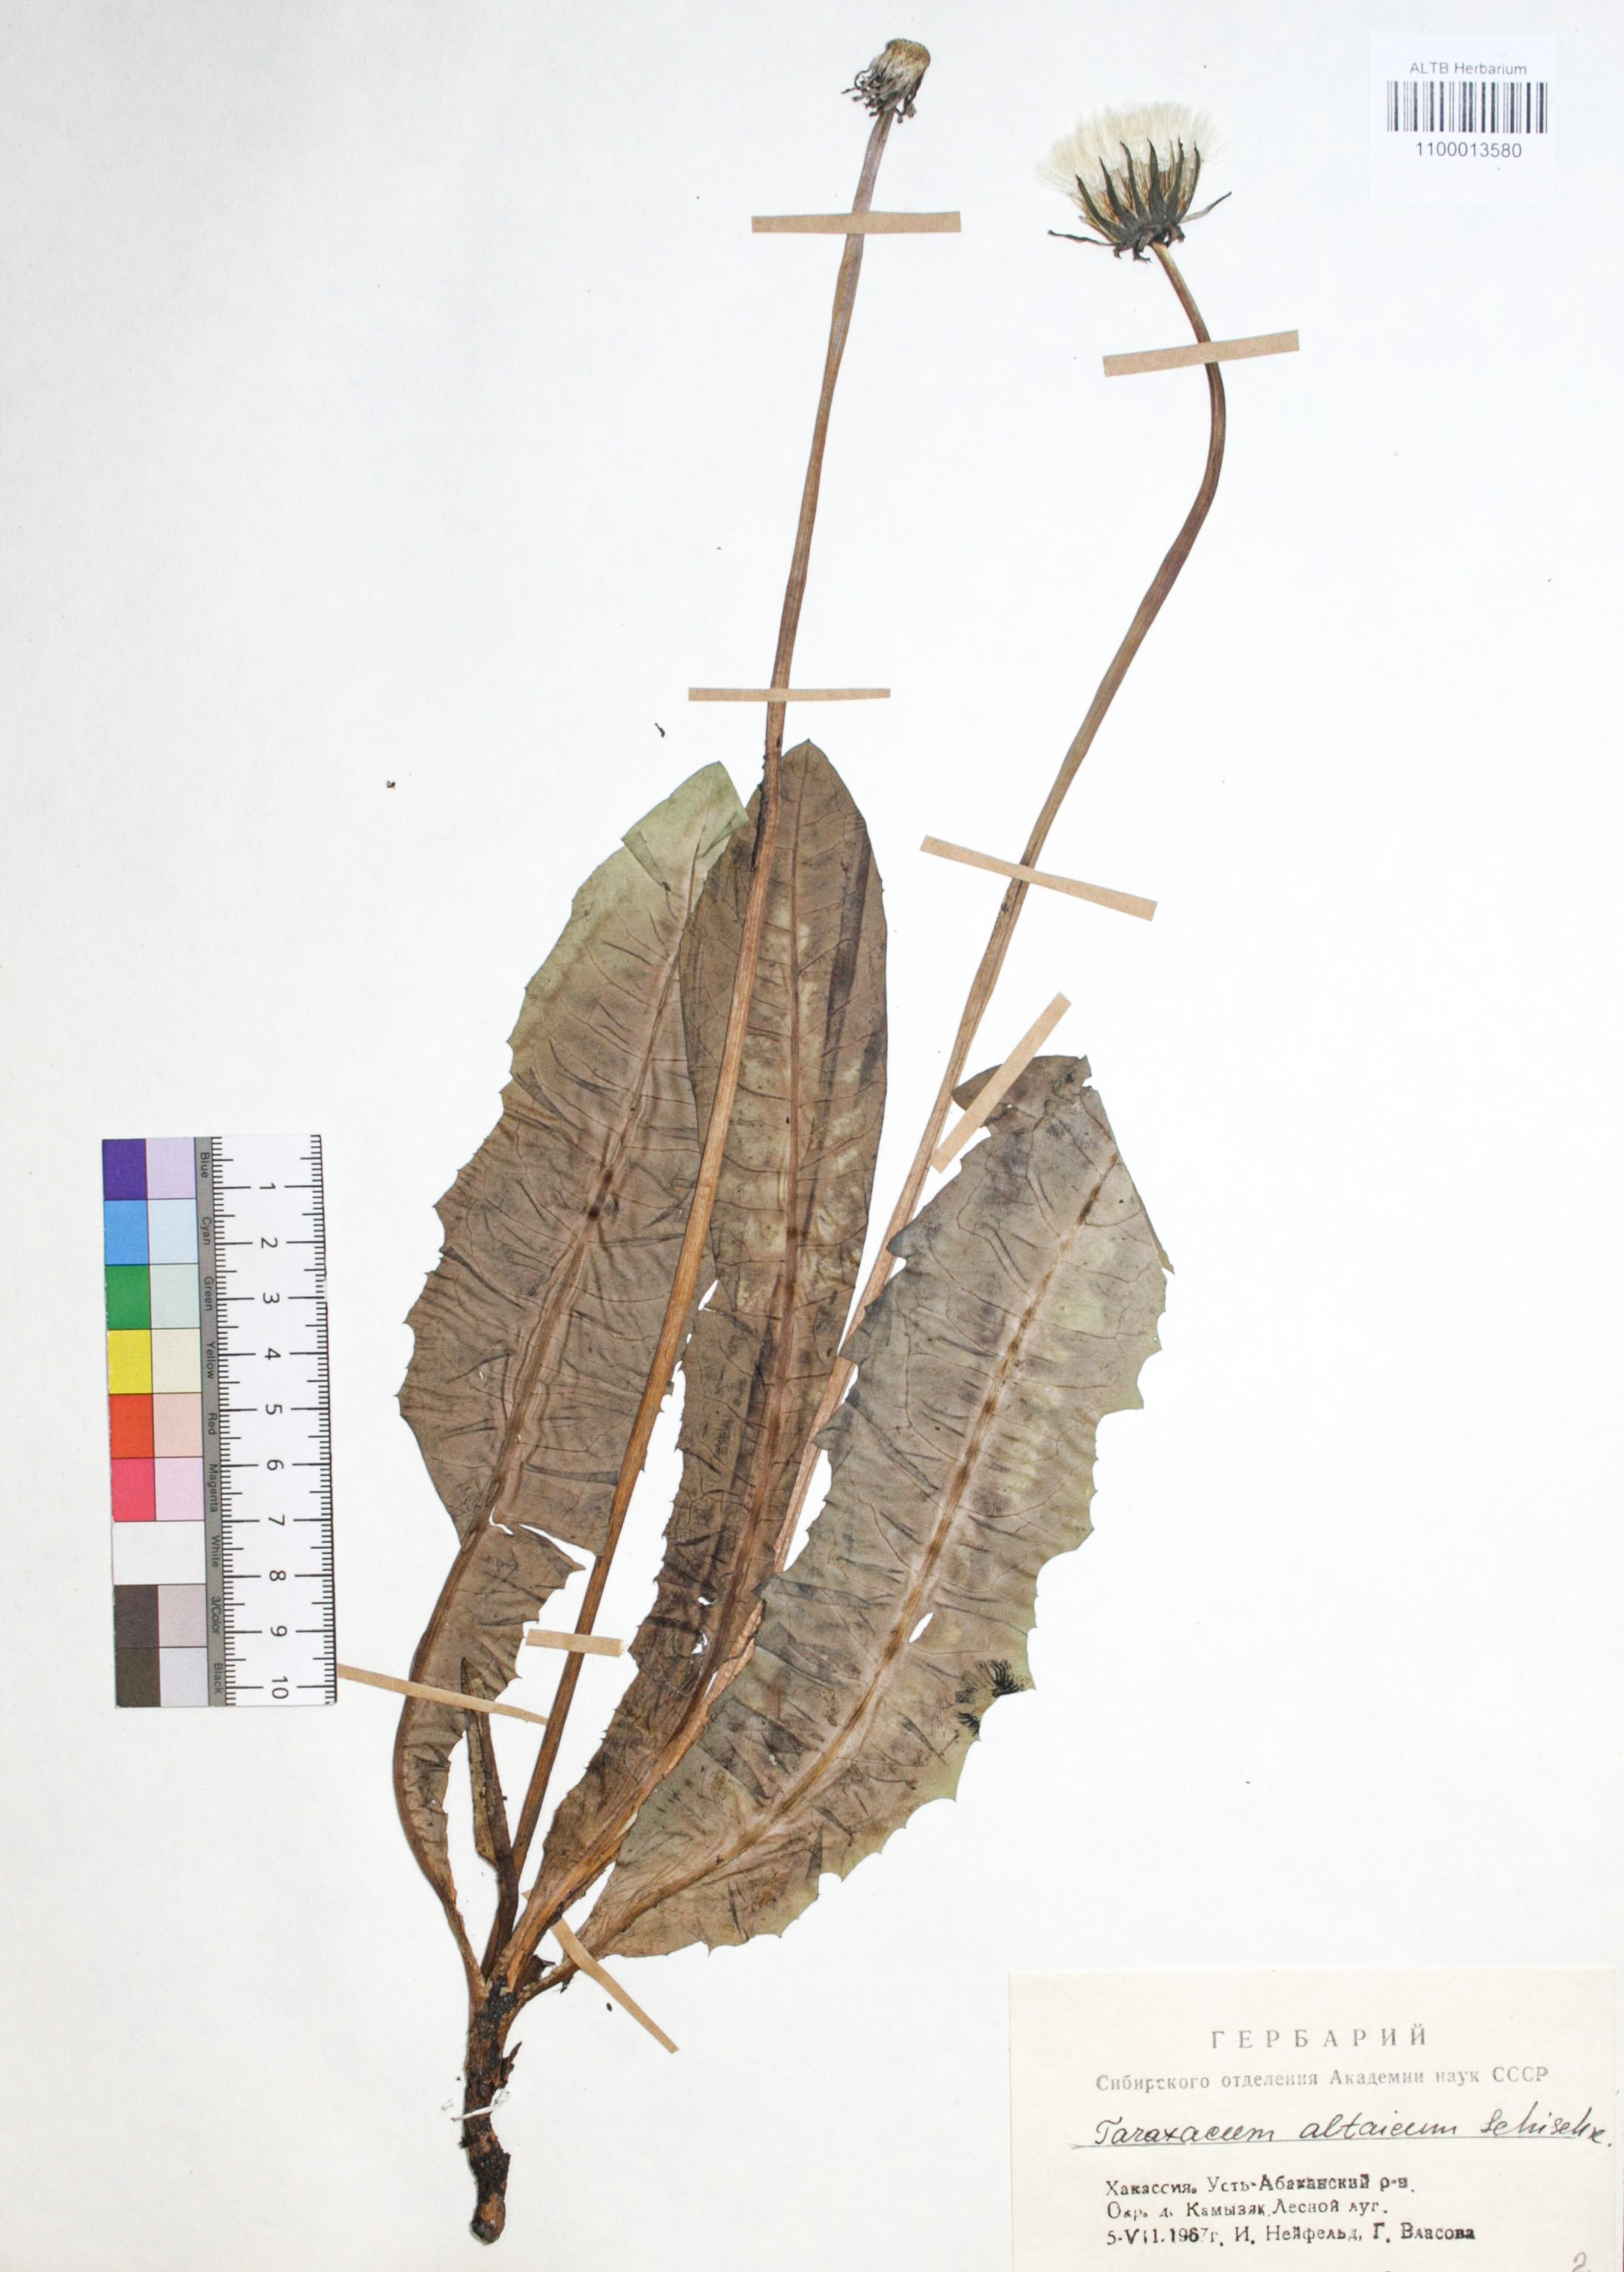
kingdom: Plantae
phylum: Tracheophyta
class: Magnoliopsida
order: Asterales
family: Asteraceae
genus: Taraxacum
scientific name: Taraxacum ceratophorum
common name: Horn-bearing dandelion
